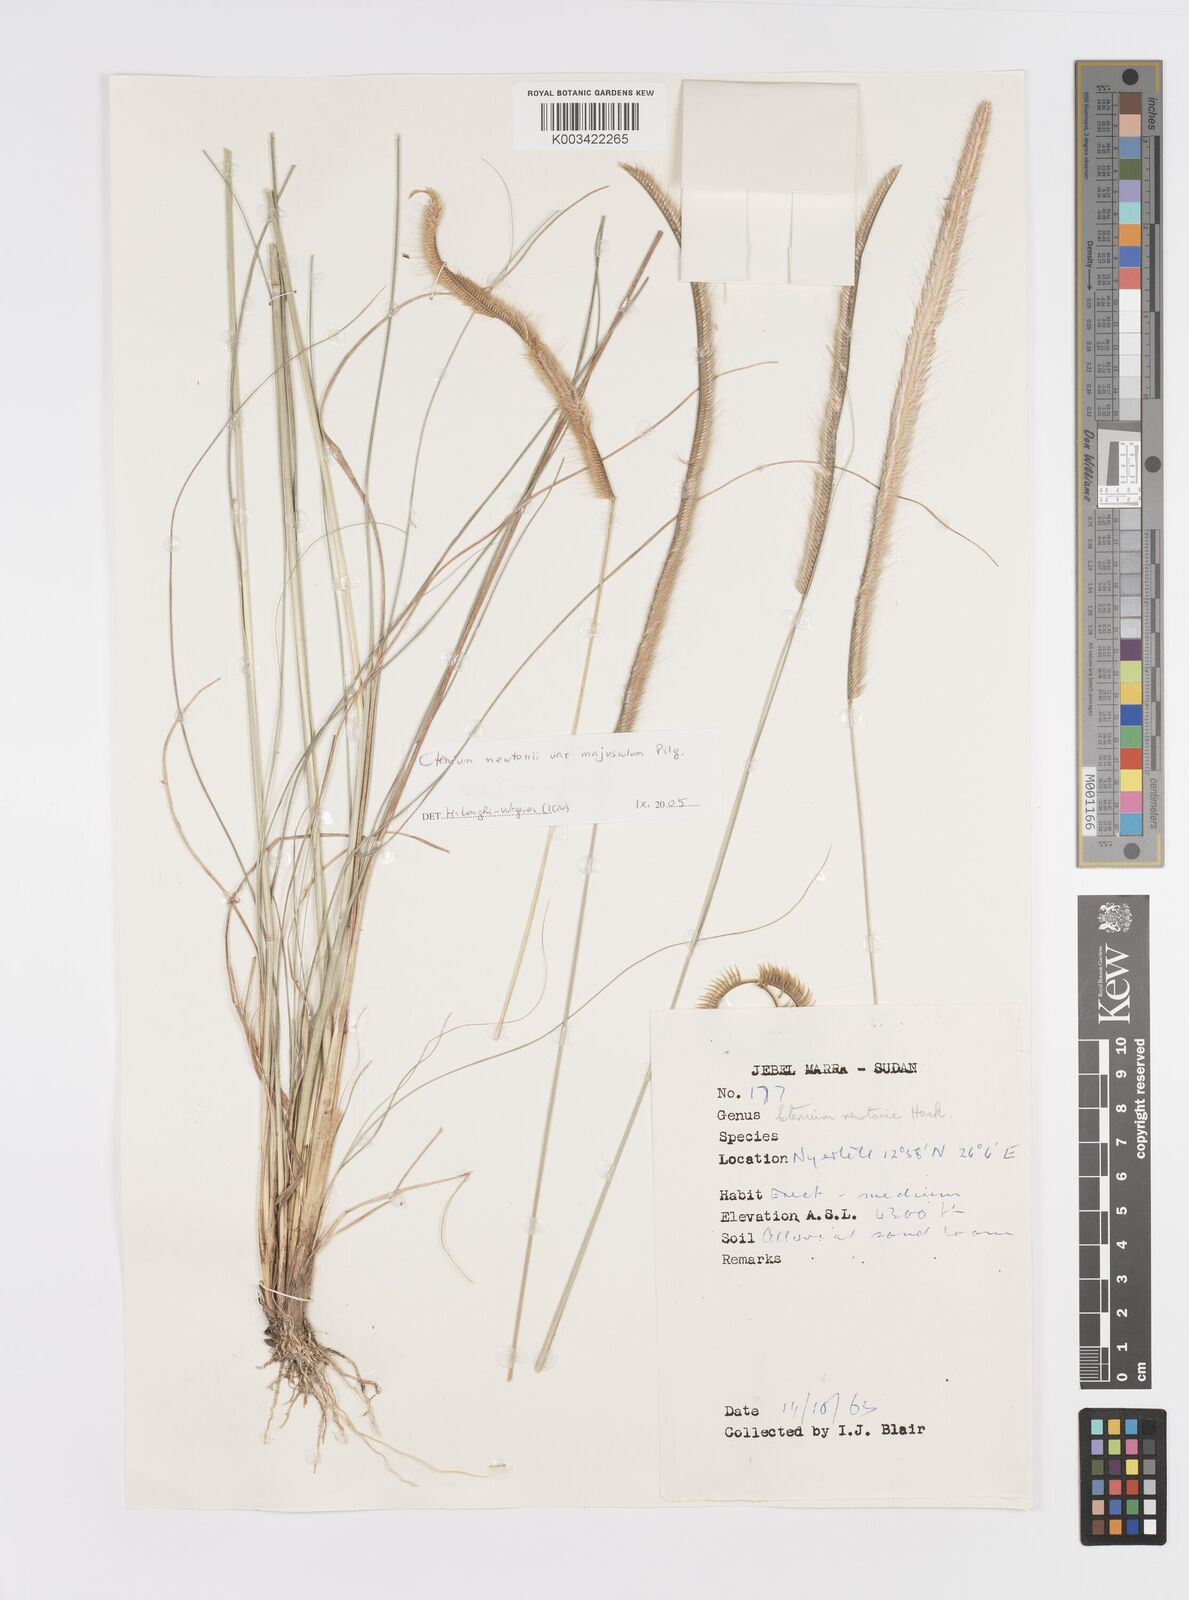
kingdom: Plantae
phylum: Tracheophyta
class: Liliopsida
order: Poales
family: Poaceae
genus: Ctenium
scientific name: Ctenium newtonii
